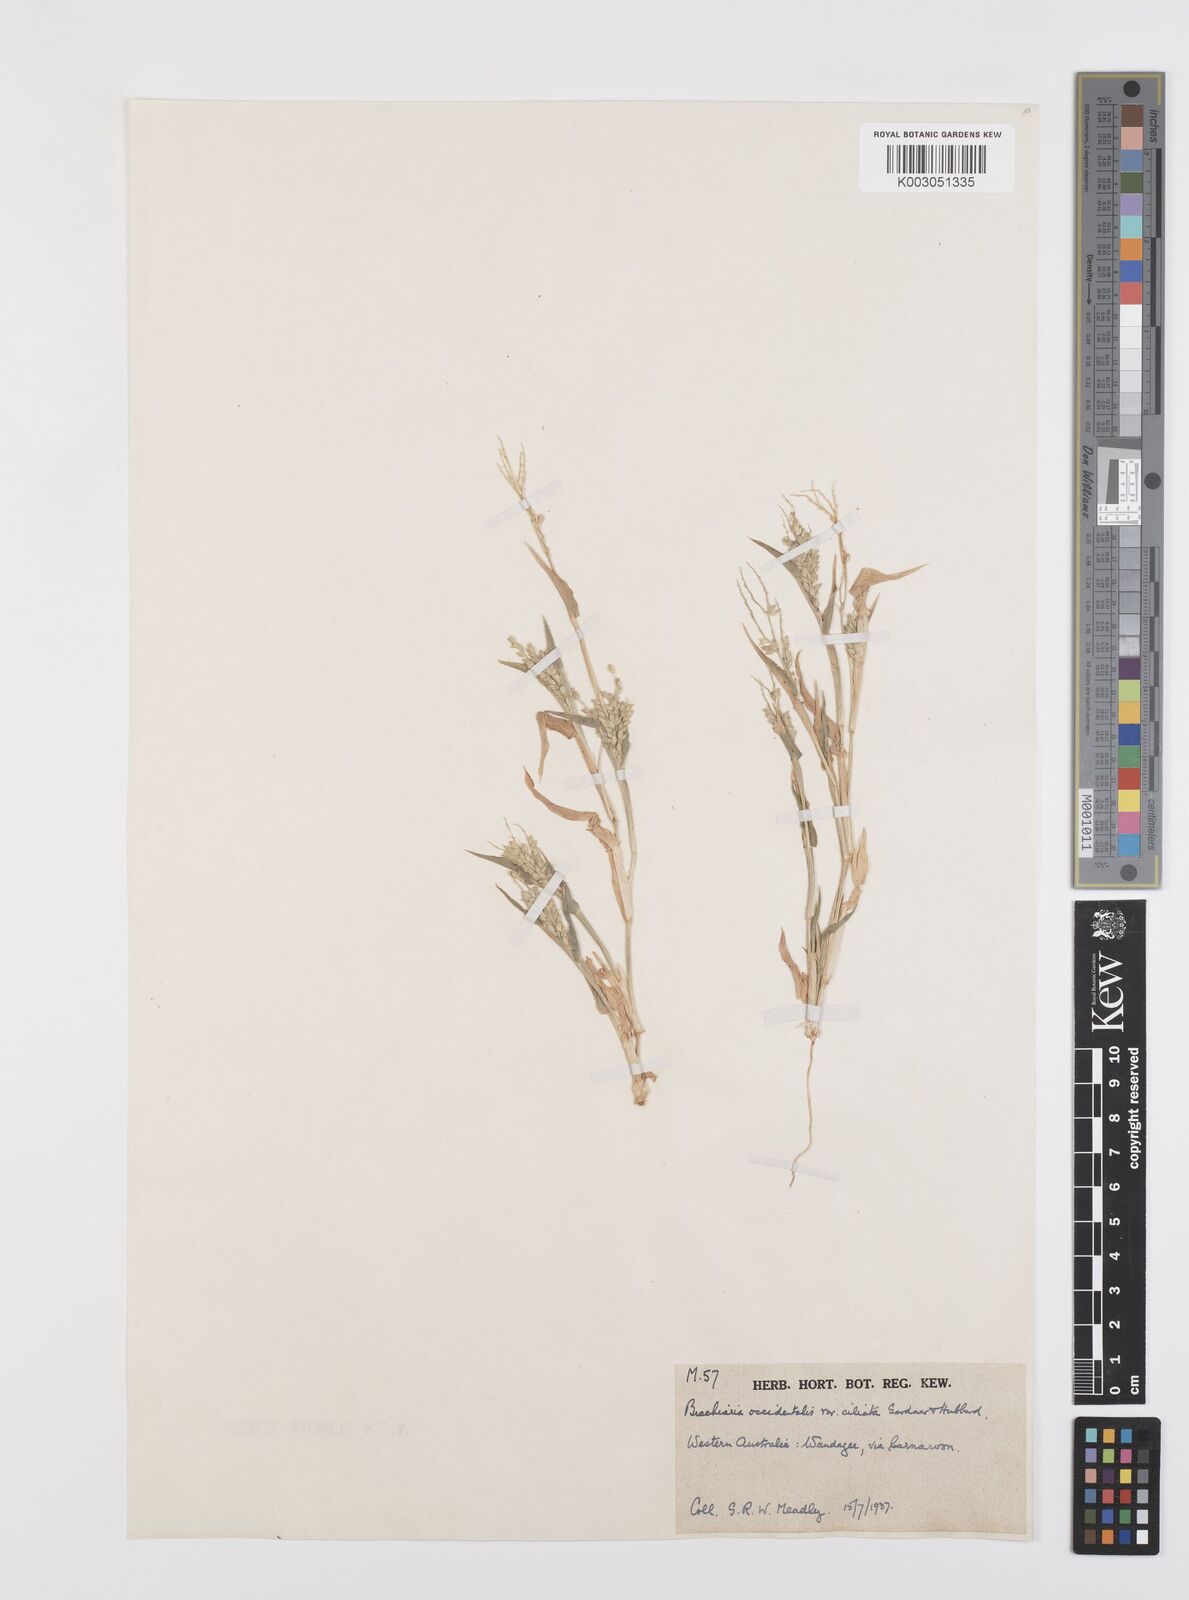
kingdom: Plantae
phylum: Tracheophyta
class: Liliopsida
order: Poales
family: Poaceae
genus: Urochloa
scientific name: Urochloa occidentalis
